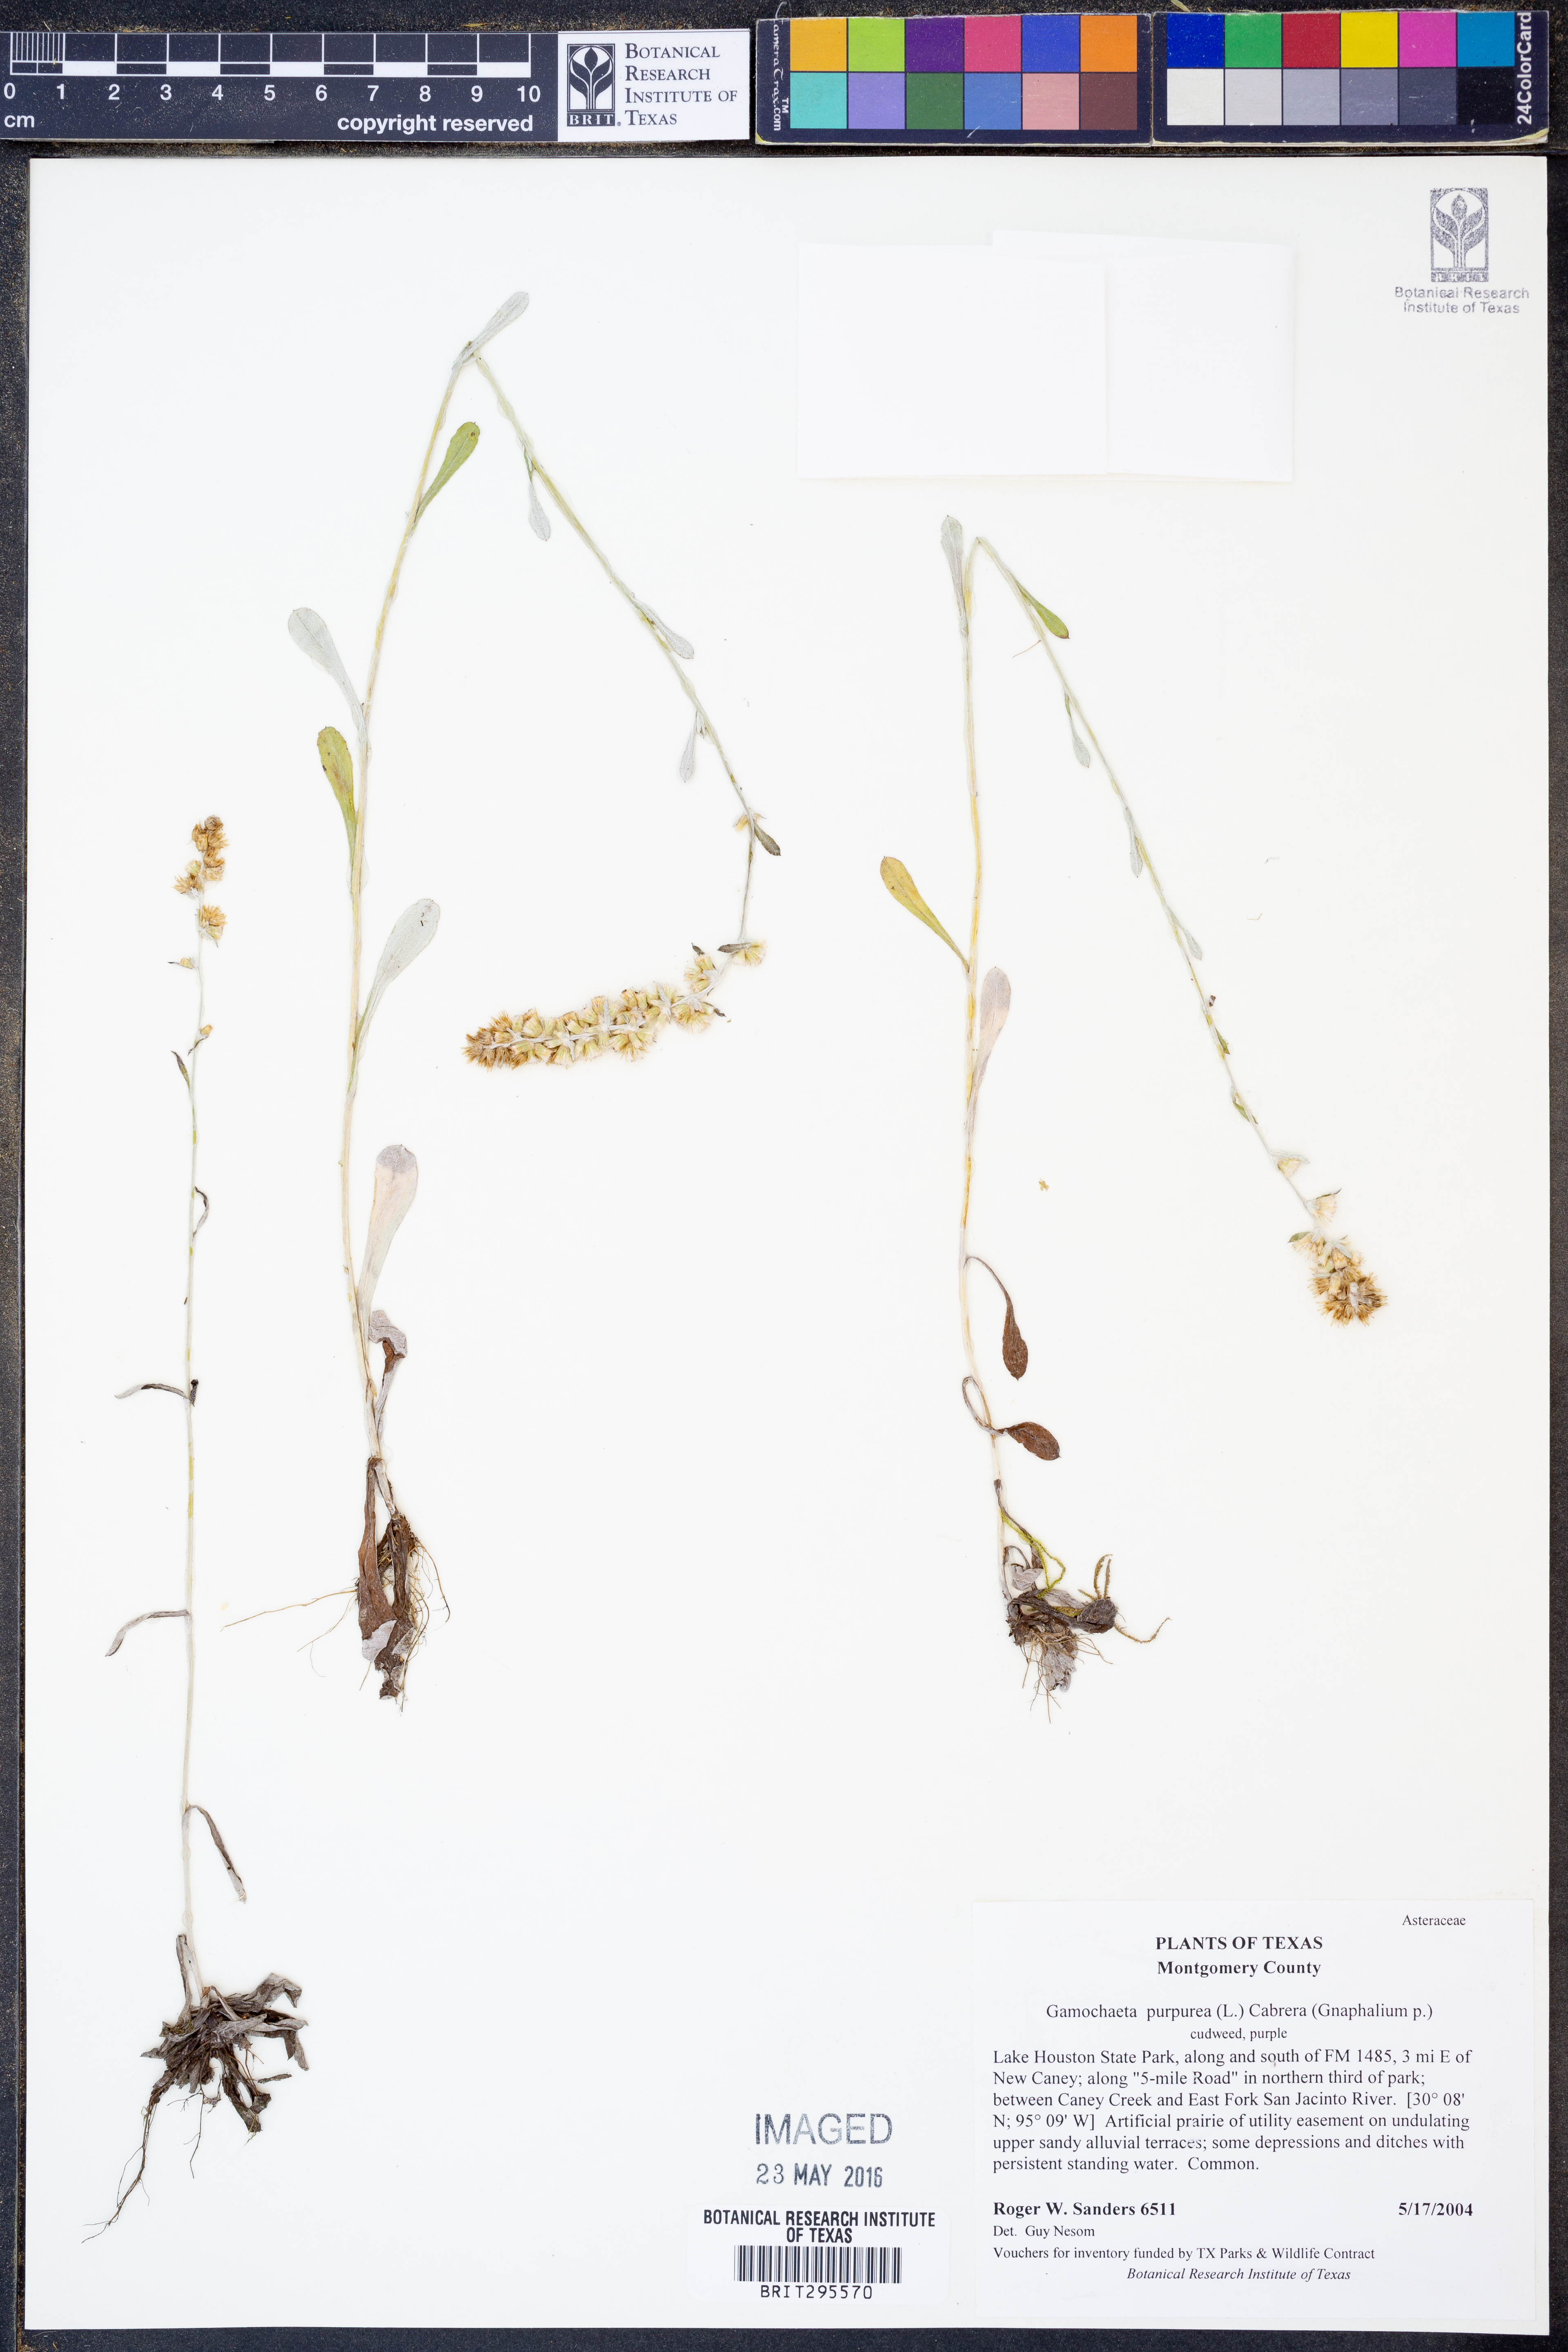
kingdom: Plantae
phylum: Tracheophyta
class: Magnoliopsida
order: Asterales
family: Asteraceae
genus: Gamochaeta
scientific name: Gamochaeta purpurea
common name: Purple cudweed
